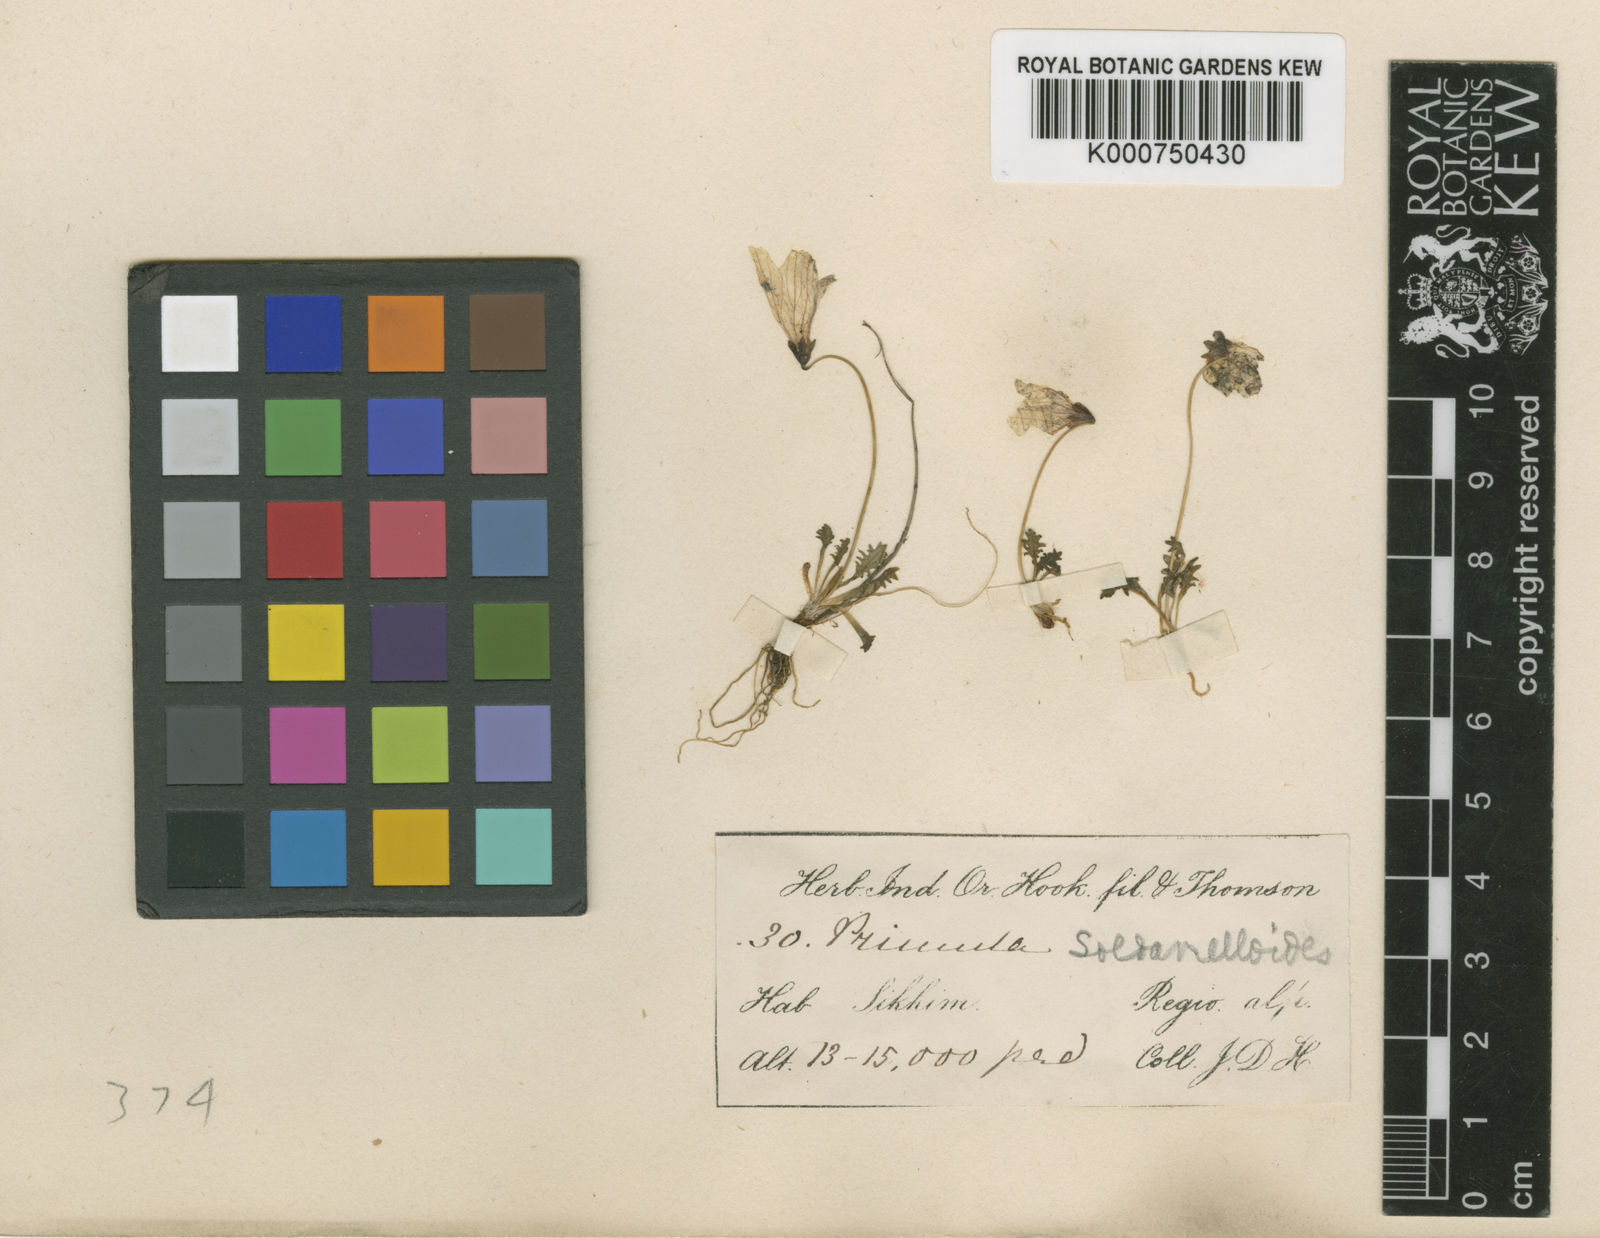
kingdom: Plantae
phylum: Tracheophyta
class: Magnoliopsida
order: Ericales
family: Primulaceae
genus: Primula
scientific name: Primula soldanelloides
